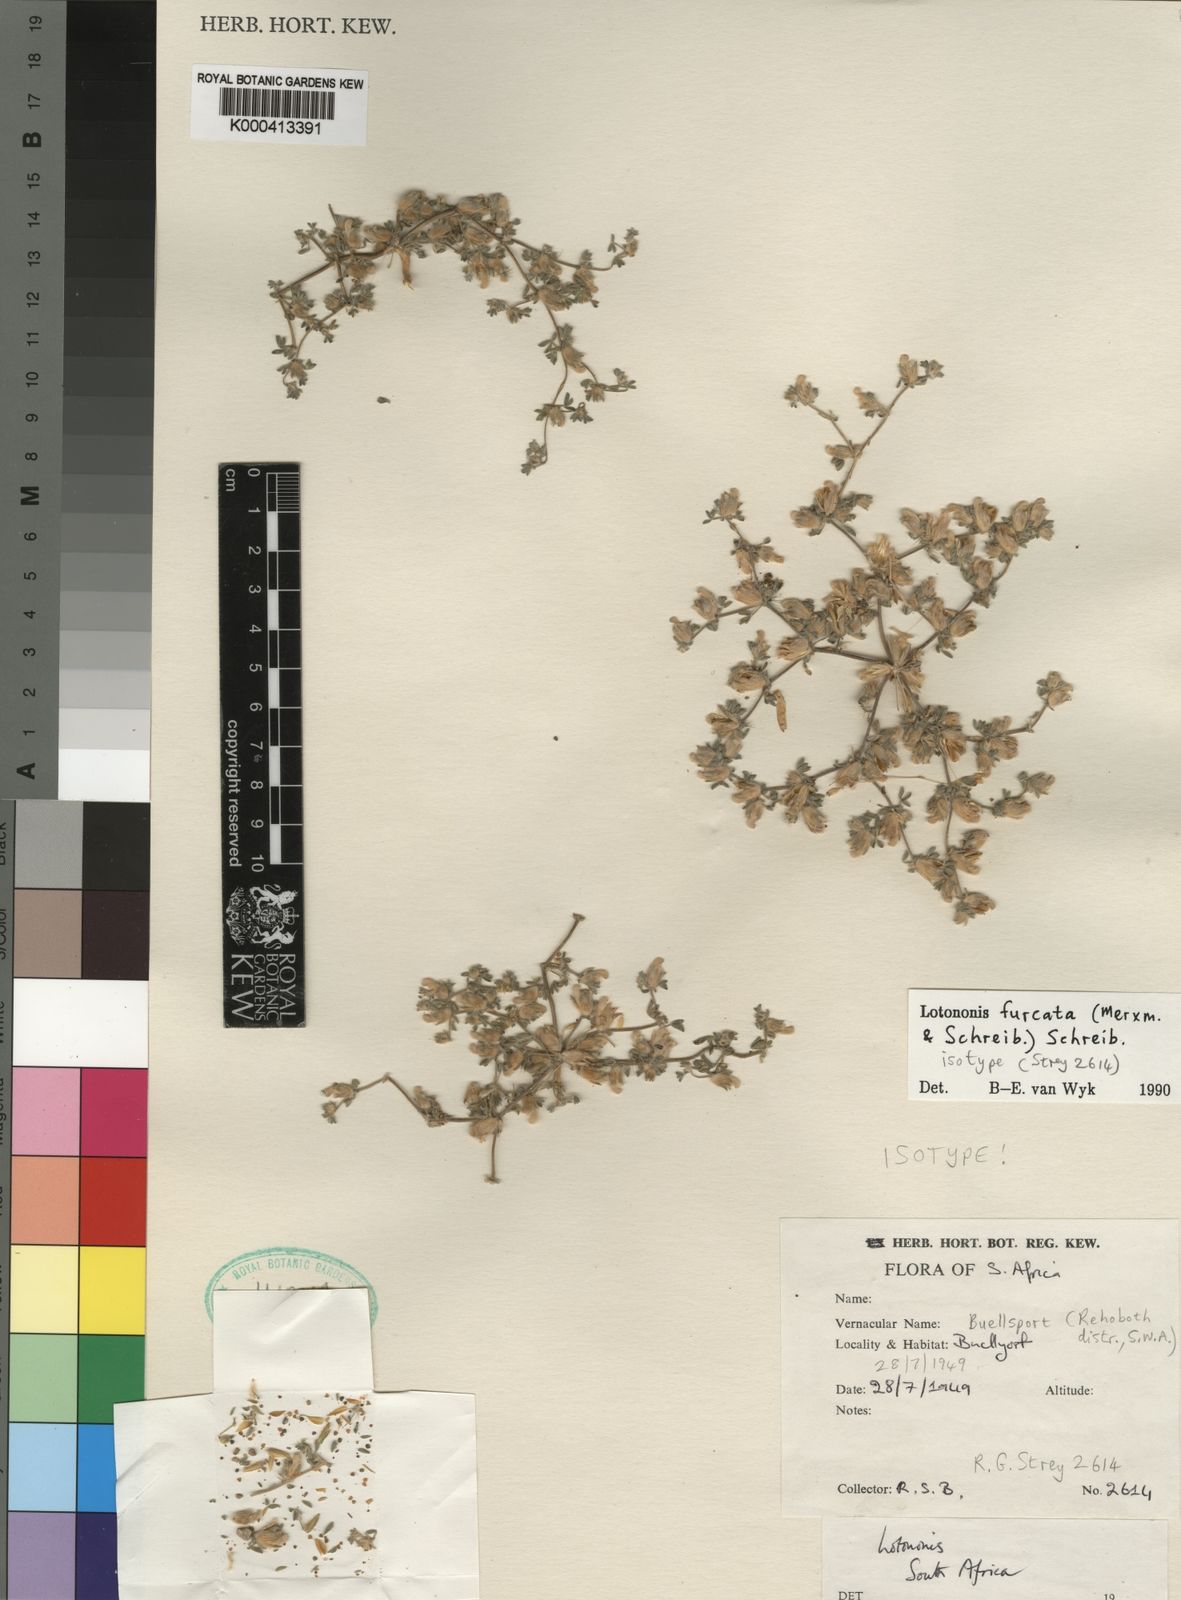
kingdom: Plantae
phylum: Tracheophyta
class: Magnoliopsida
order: Fabales
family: Fabaceae
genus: Leobordea
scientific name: Leobordea furcata
